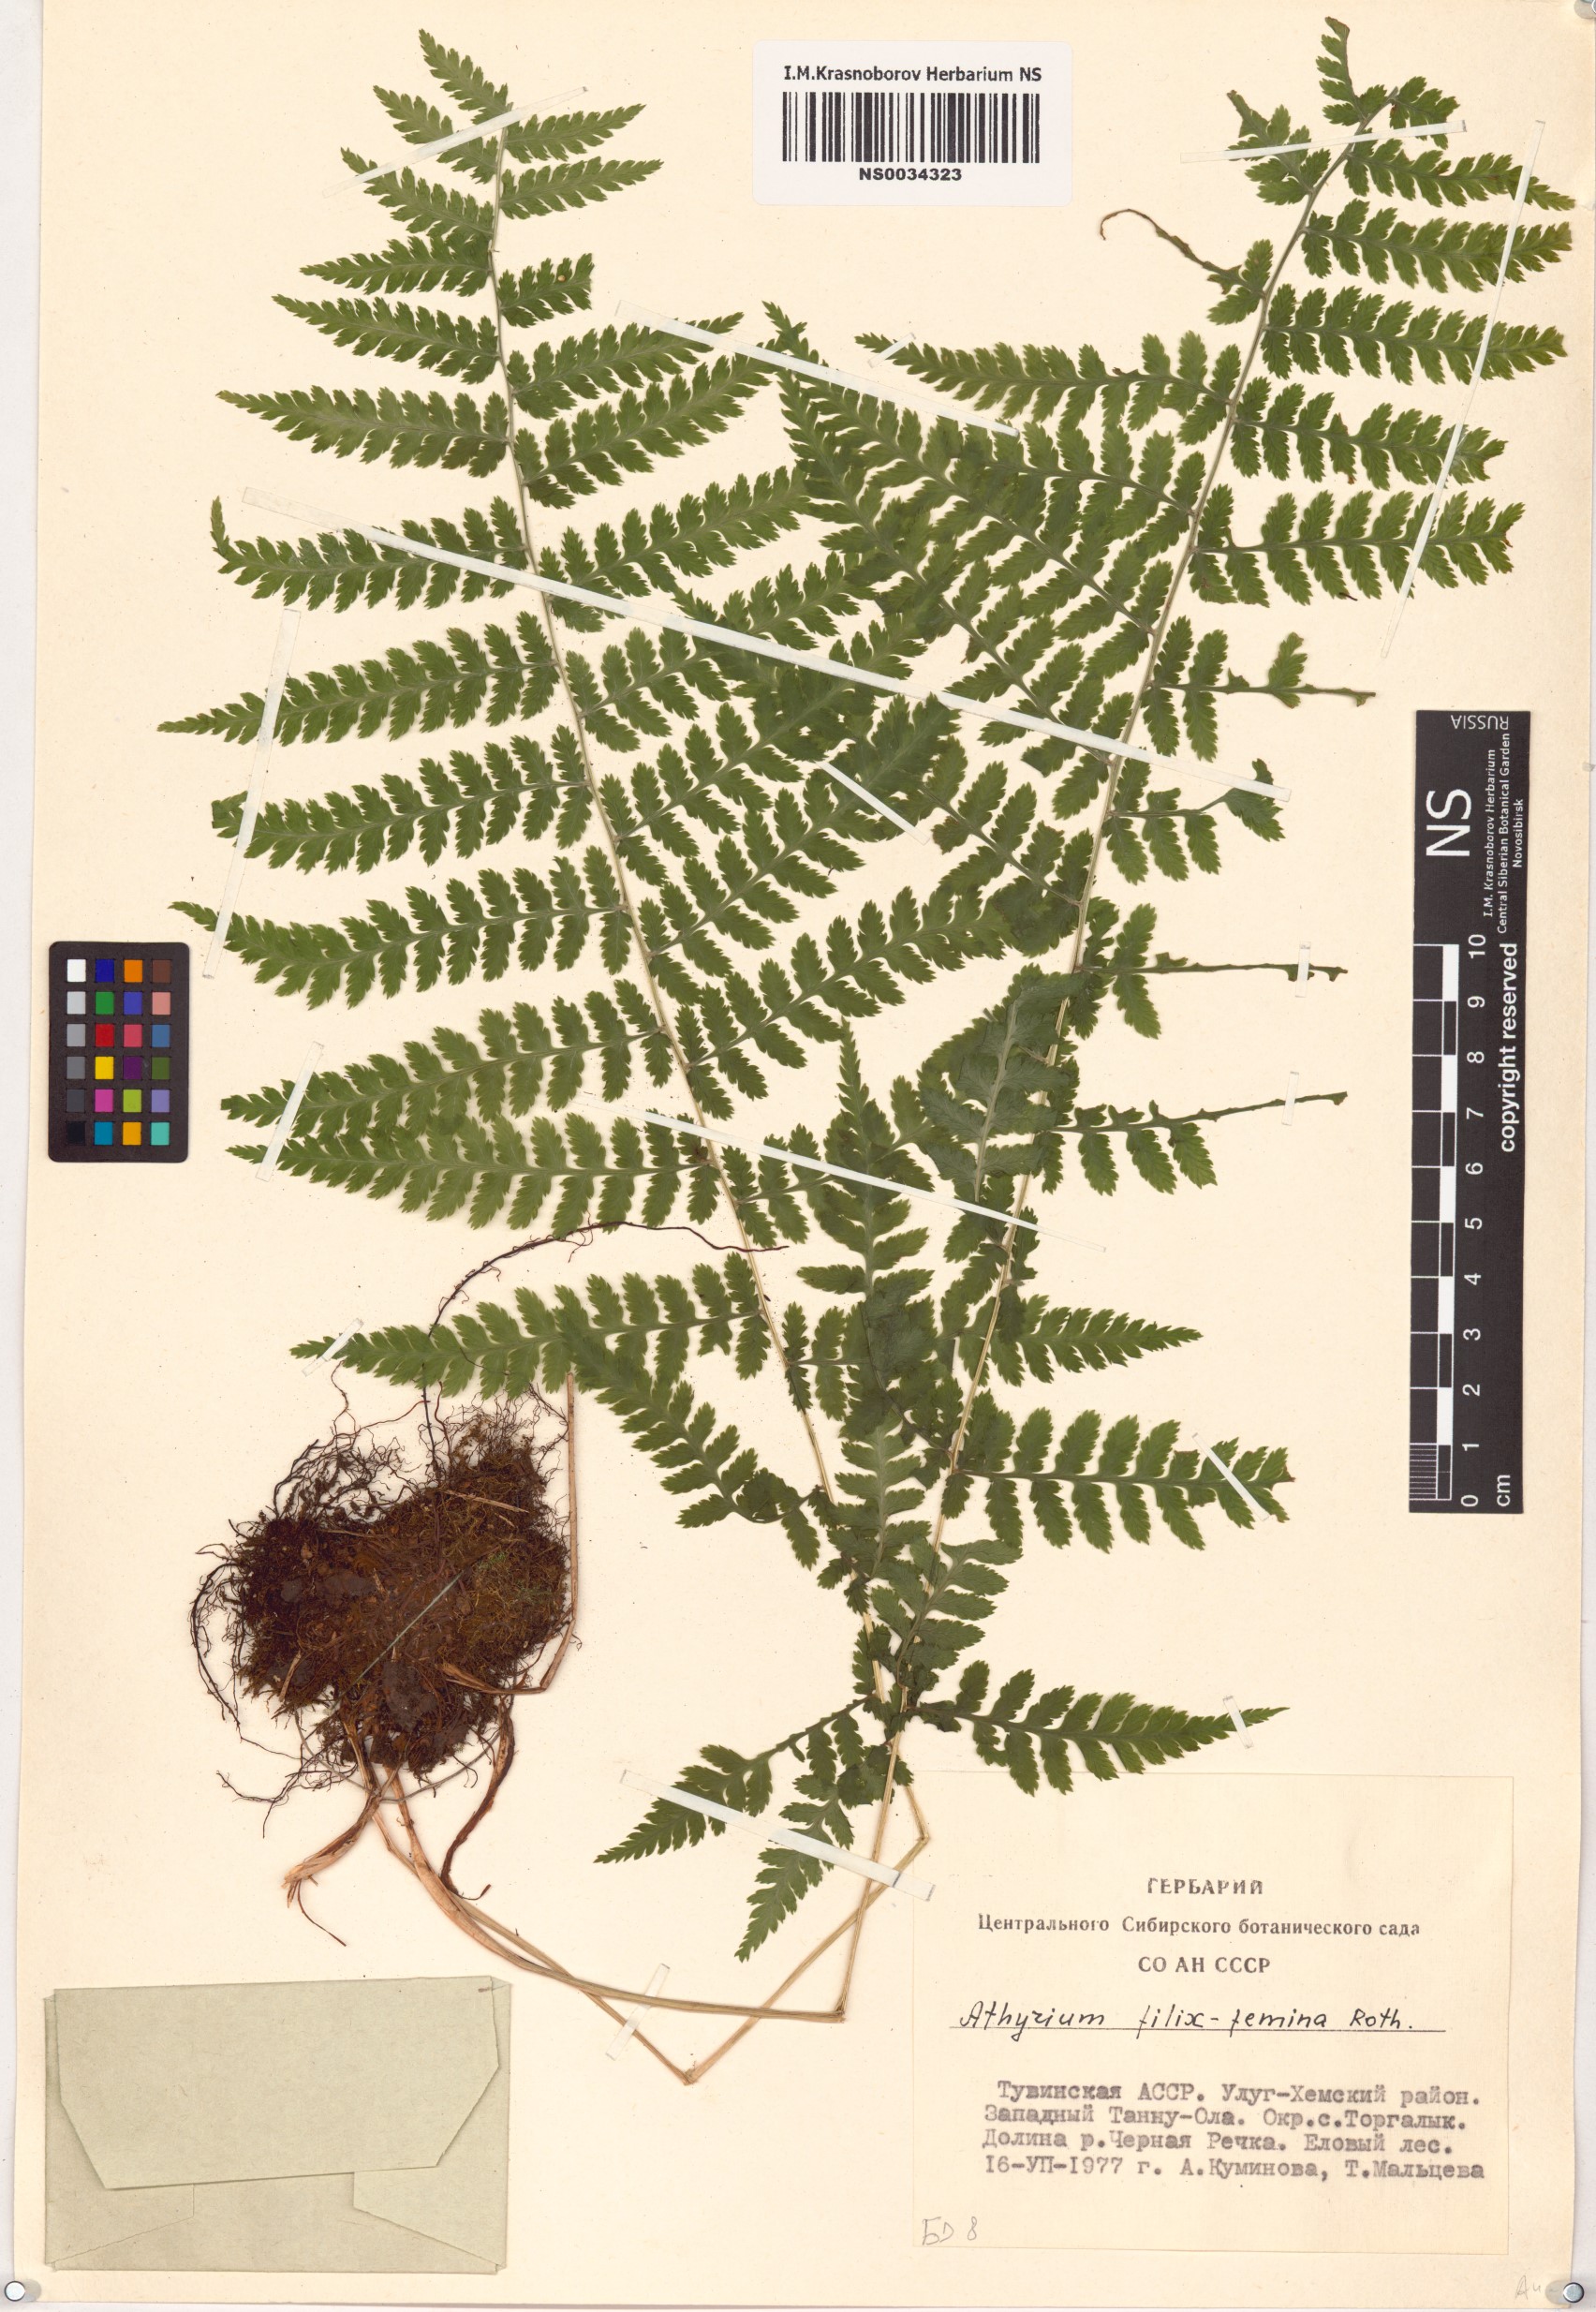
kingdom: Plantae
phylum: Tracheophyta
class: Polypodiopsida
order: Polypodiales
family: Athyriaceae
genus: Athyrium
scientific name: Athyrium filix-femina
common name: Lady fern
